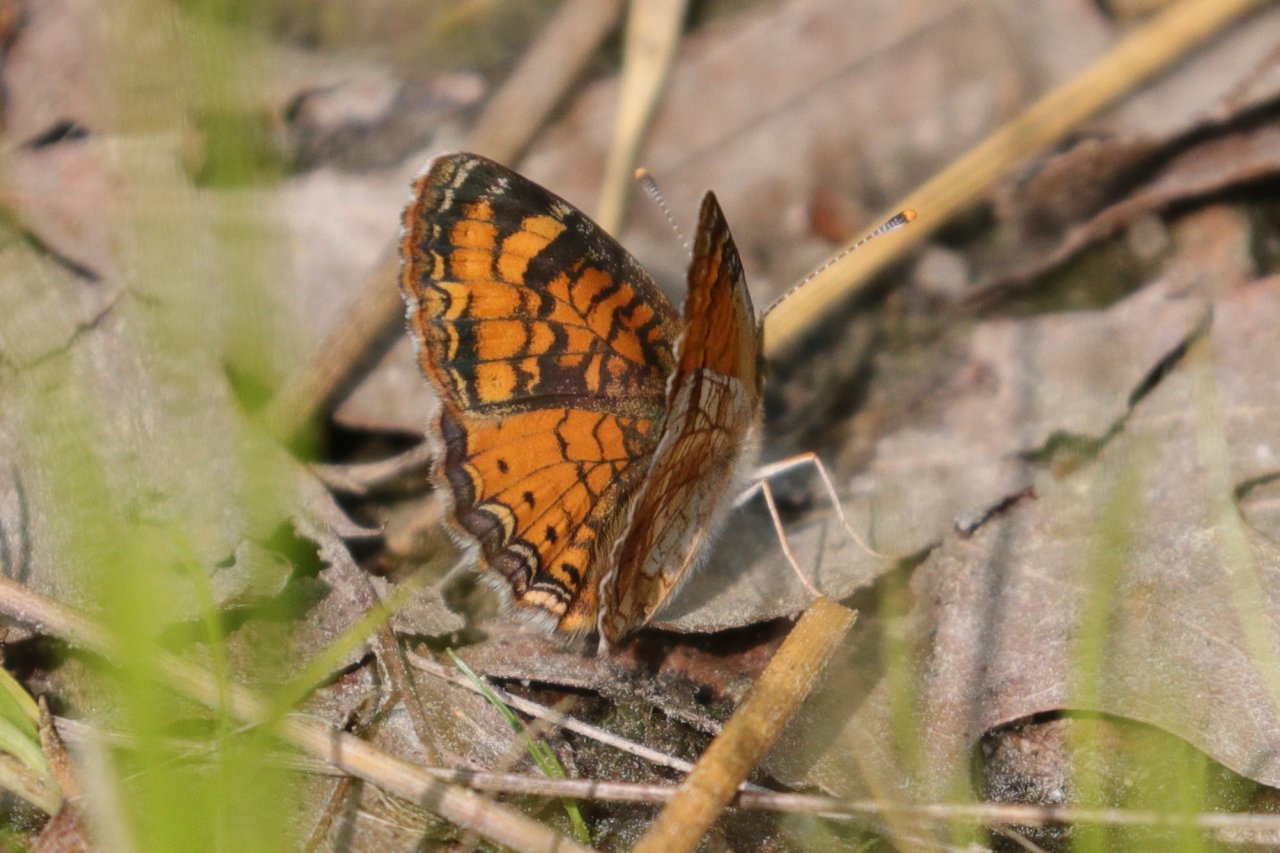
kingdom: Animalia
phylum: Arthropoda
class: Insecta
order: Lepidoptera
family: Nymphalidae
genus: Phyciodes
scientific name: Phyciodes tharos
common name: Pearl Crescent
